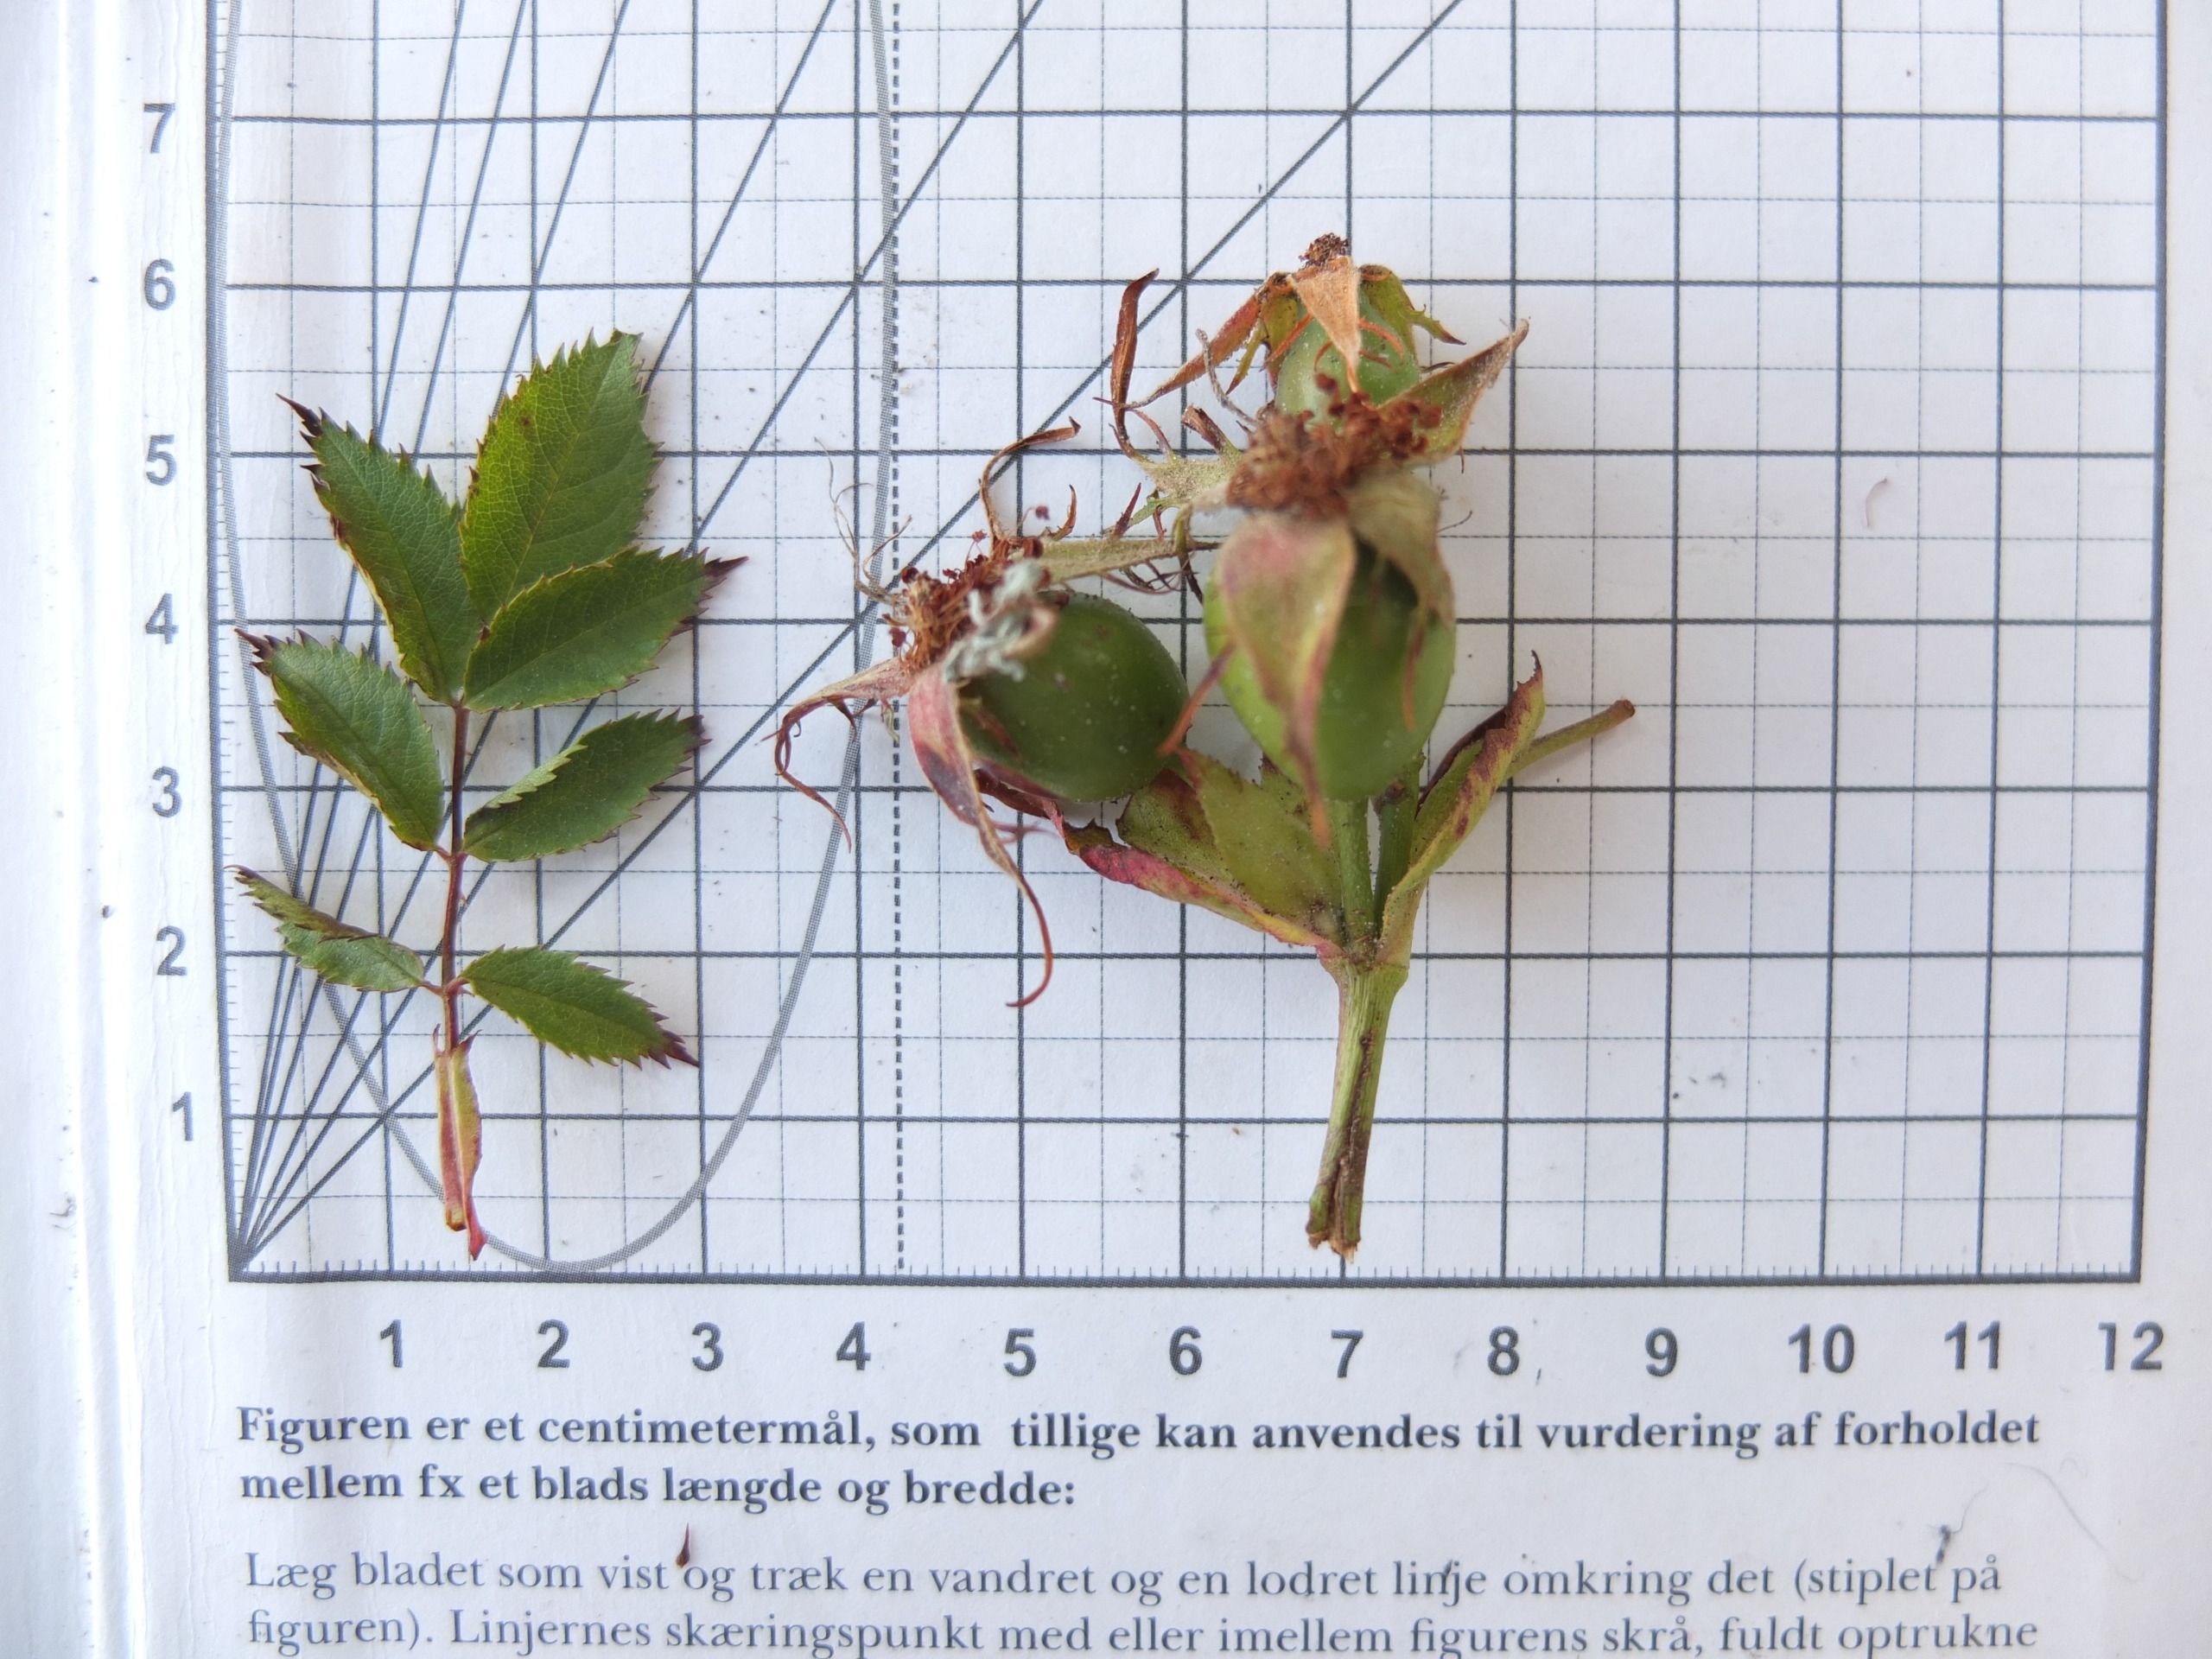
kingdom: Plantae
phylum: Tracheophyta
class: Magnoliopsida
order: Rosales
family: Rosaceae
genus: Rosa
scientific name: Rosa
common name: Roseslægten
